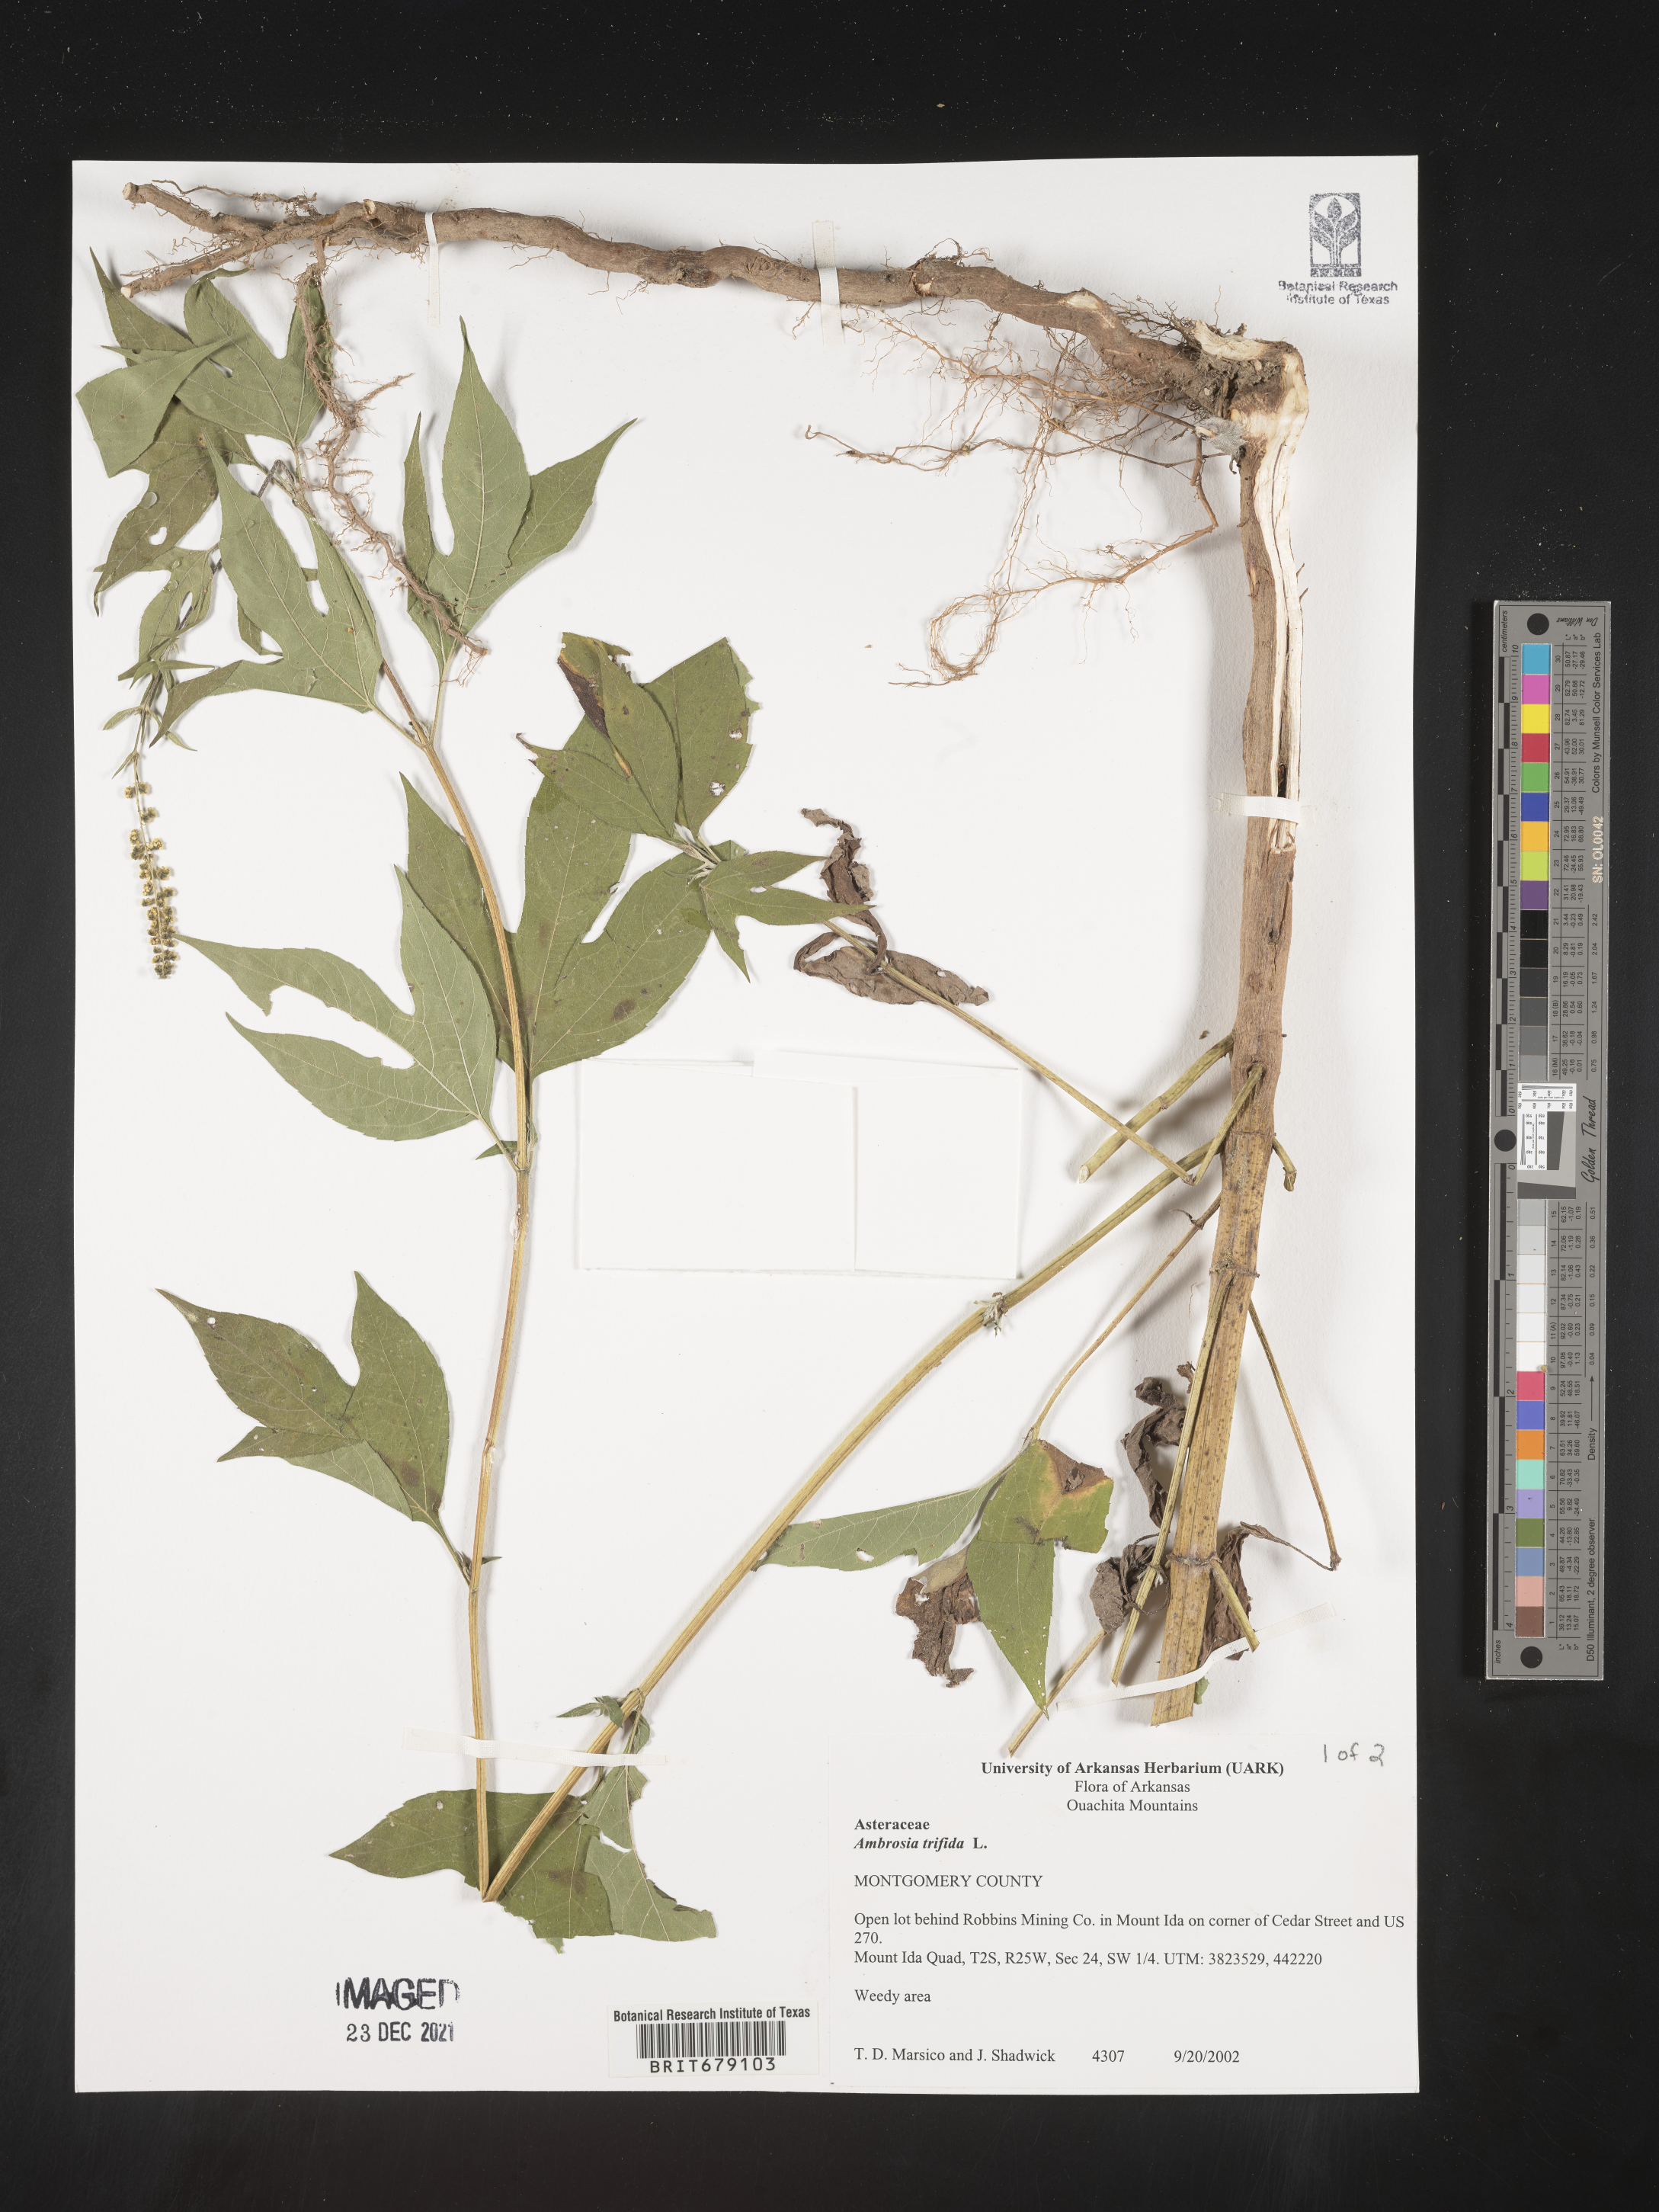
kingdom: Plantae
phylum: Tracheophyta
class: Magnoliopsida
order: Asterales
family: Asteraceae
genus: Ambrosia
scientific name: Ambrosia trifida
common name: Giant ragweed
